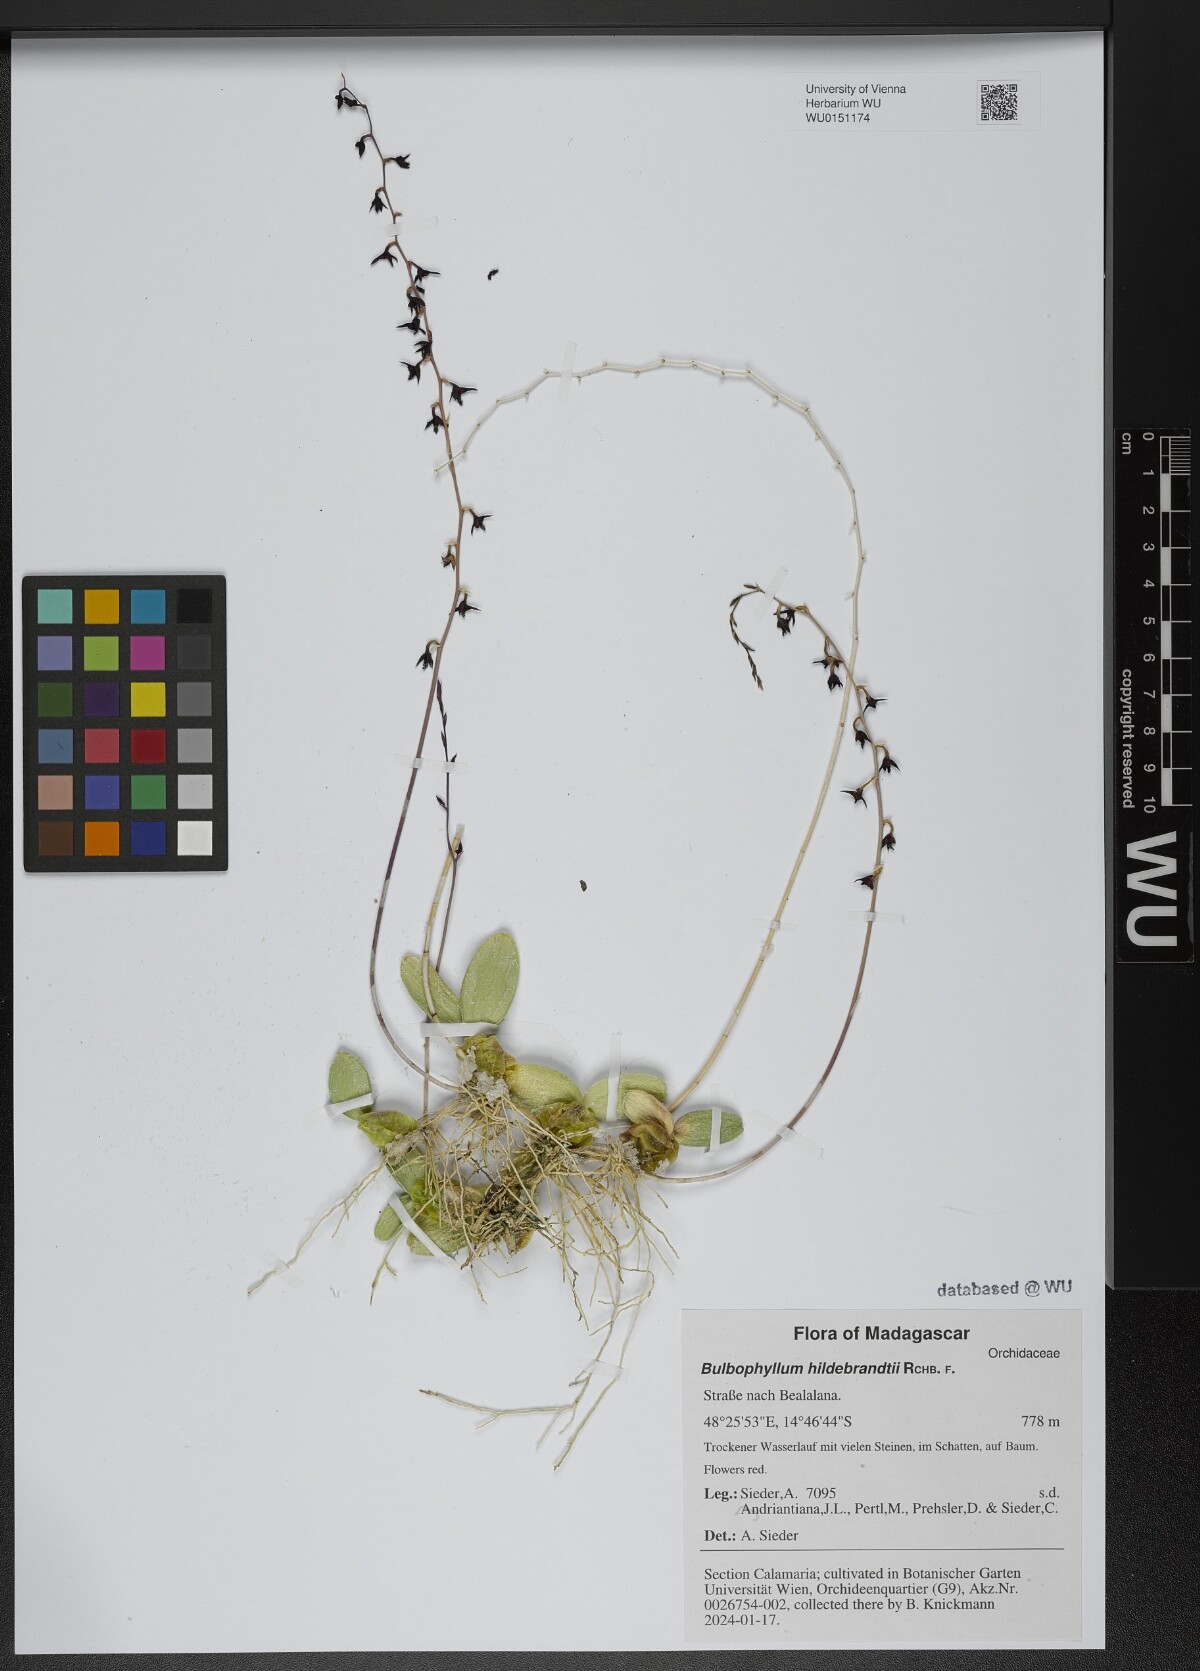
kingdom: Plantae
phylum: Tracheophyta
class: Liliopsida
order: Asparagales
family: Orchidaceae
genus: Bulbophyllum
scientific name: Bulbophyllum hildebrandtii
